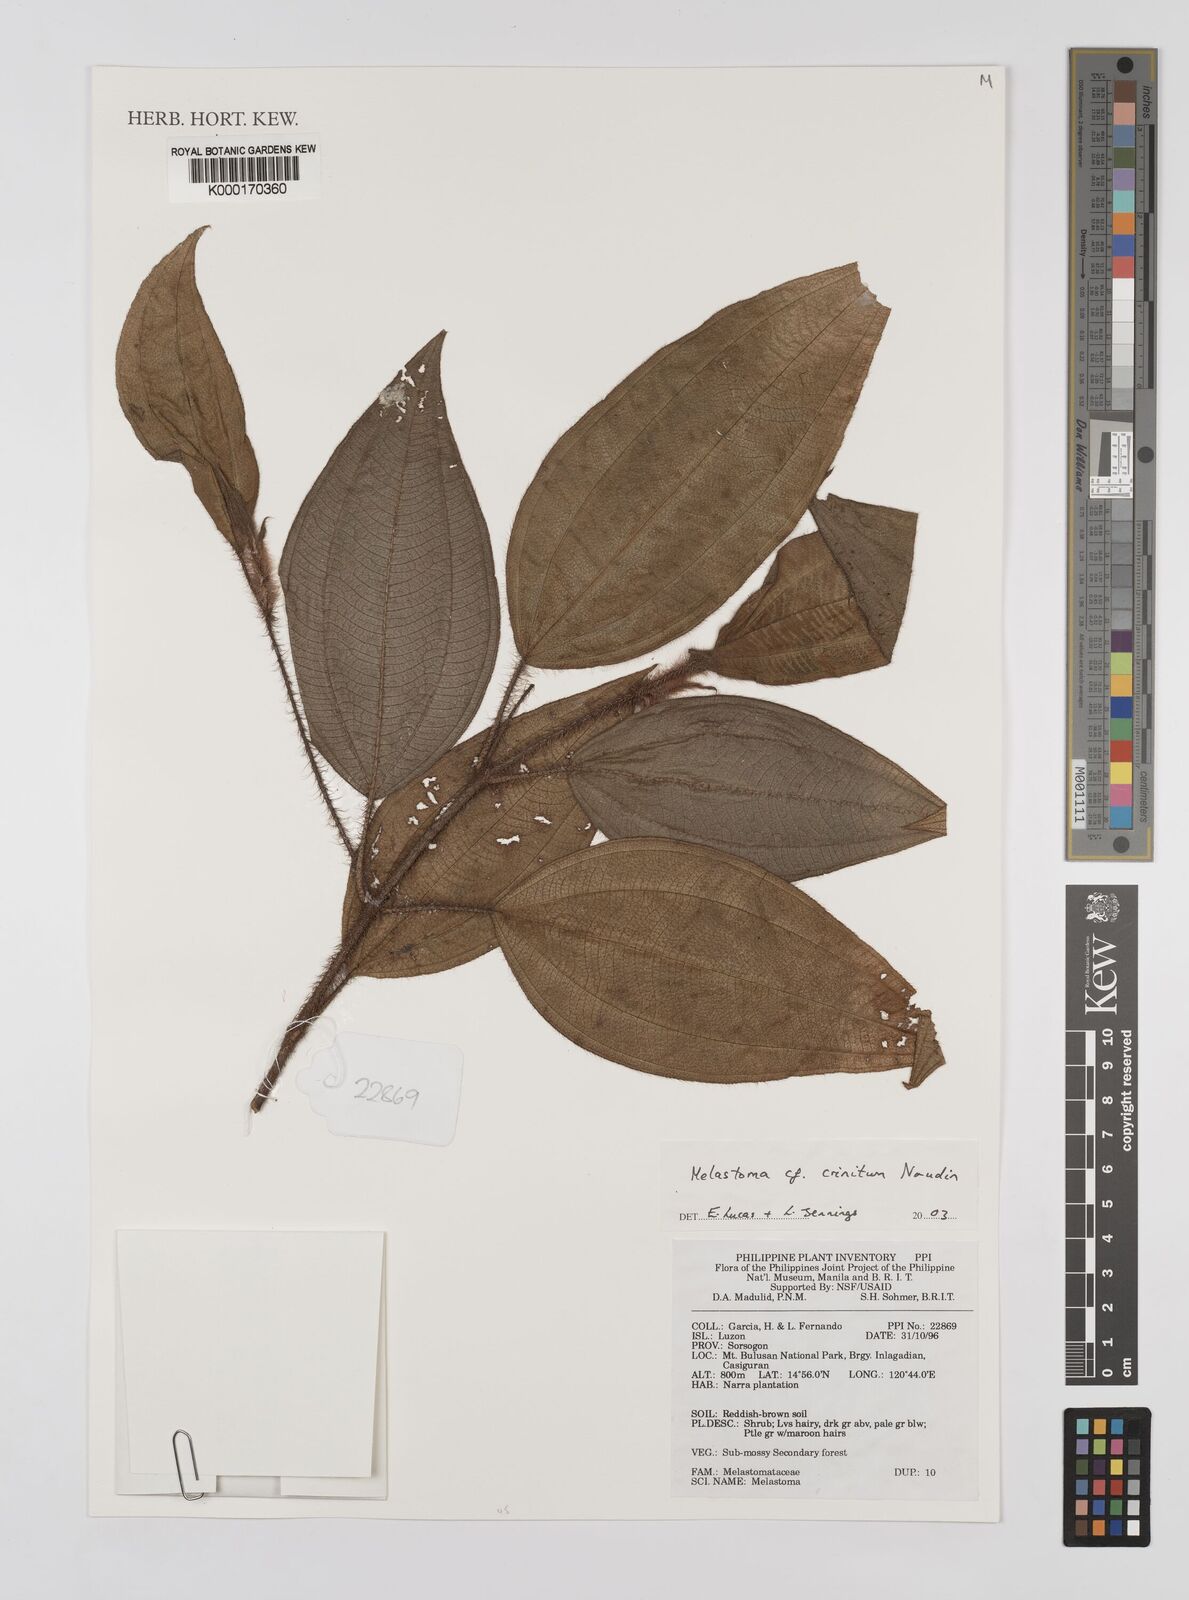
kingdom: Plantae
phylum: Tracheophyta
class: Magnoliopsida
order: Myrtales
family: Melastomataceae
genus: Melastoma
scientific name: Melastoma penicillatum
